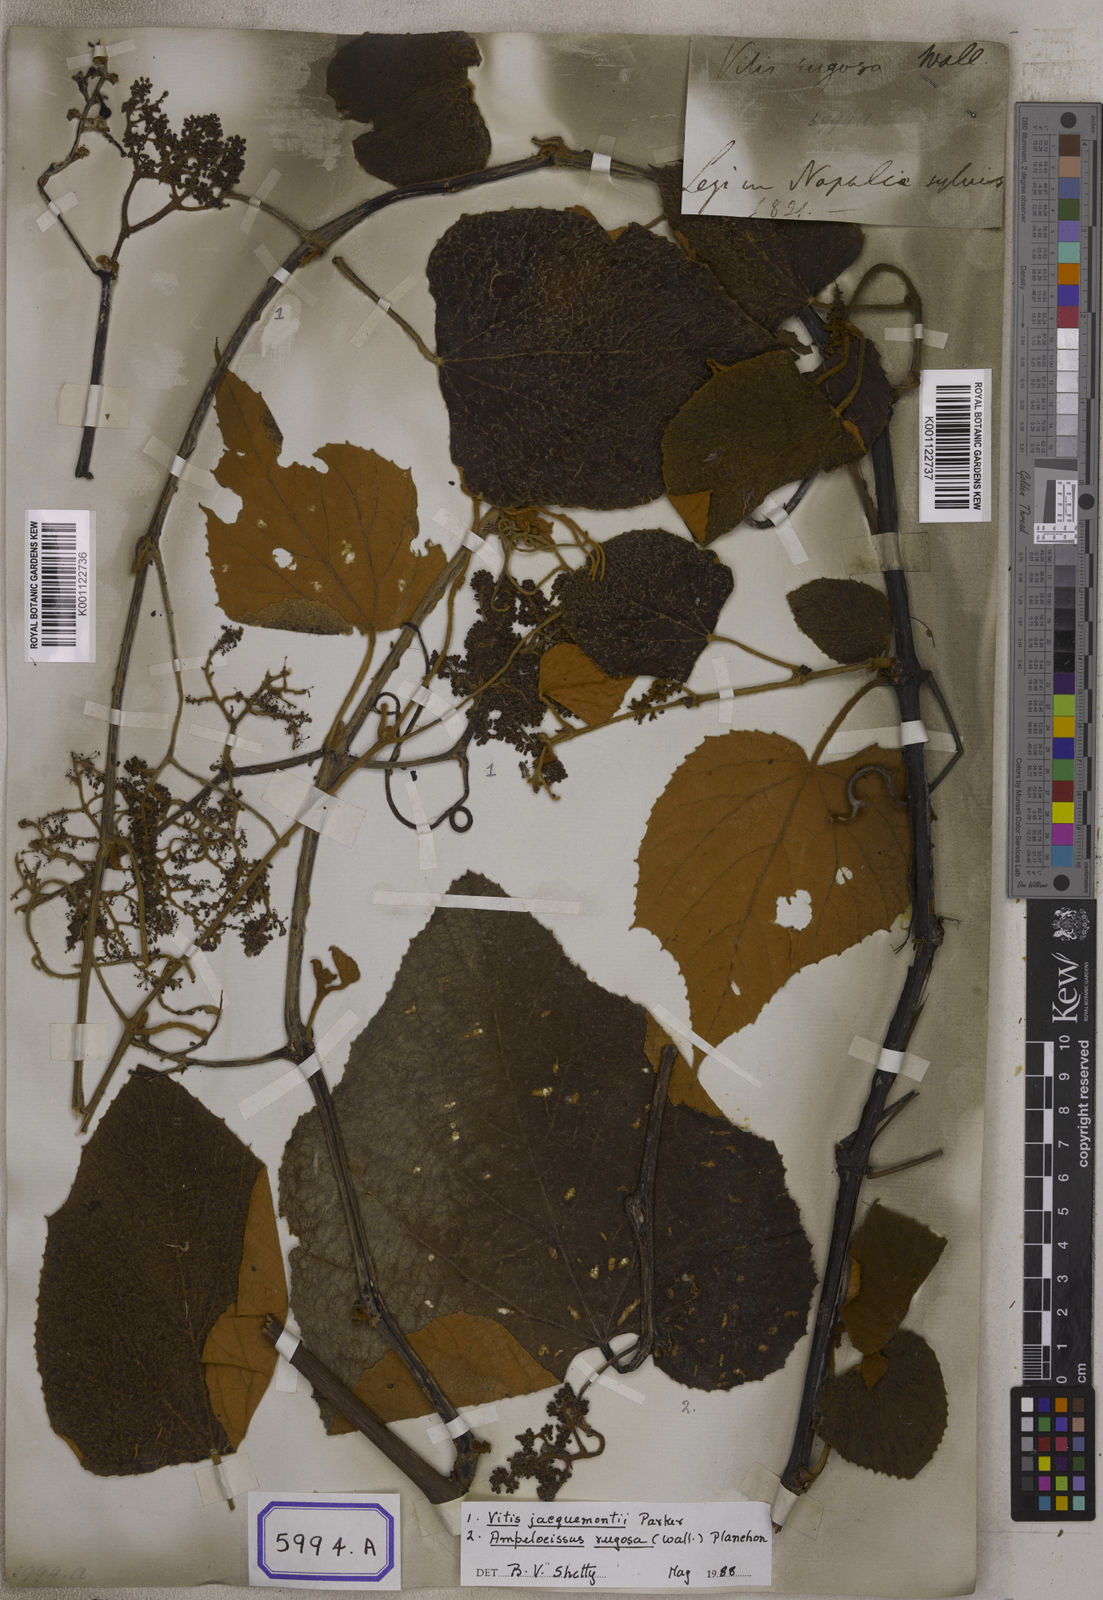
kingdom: Plantae
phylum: Tracheophyta
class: Magnoliopsida
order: Vitales
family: Vitaceae
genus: Ampelocissus
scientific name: Ampelocissus rugosa
